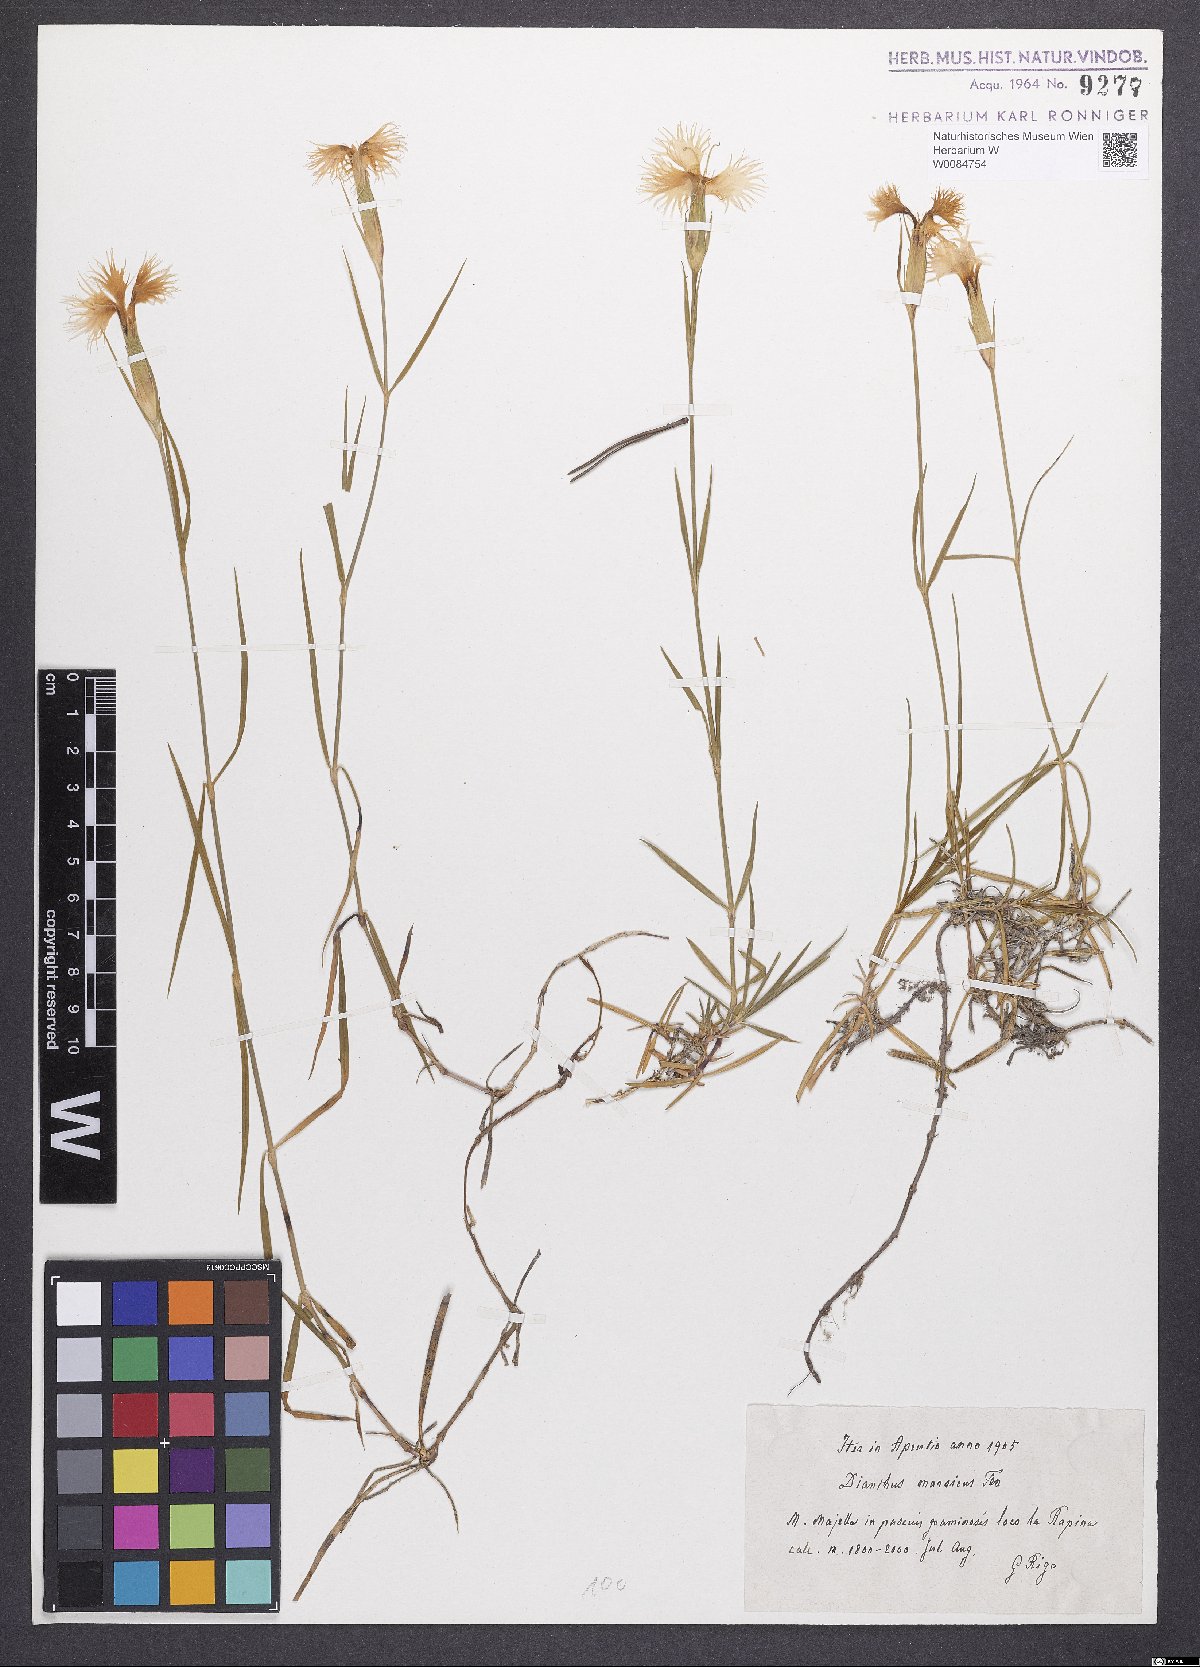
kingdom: Plantae
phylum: Tracheophyta
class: Magnoliopsida
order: Caryophyllales
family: Caryophyllaceae
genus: Dianthus
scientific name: Dianthus hyssopifolius
